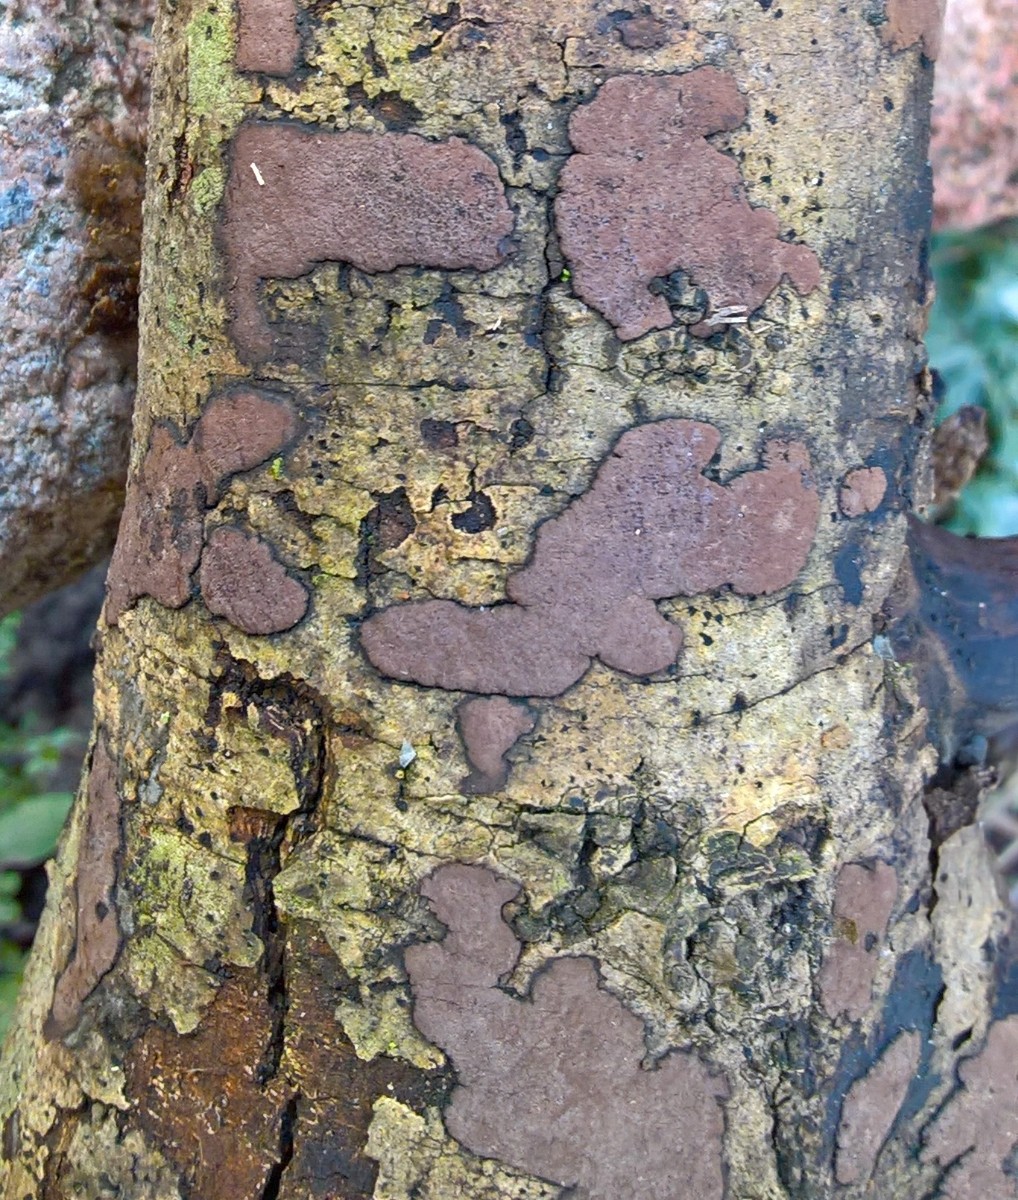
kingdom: Fungi
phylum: Ascomycota
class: Sordariomycetes
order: Xylariales
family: Hypoxylaceae
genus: Hypoxylon
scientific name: Hypoxylon petriniae
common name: nedsænket kulbær
